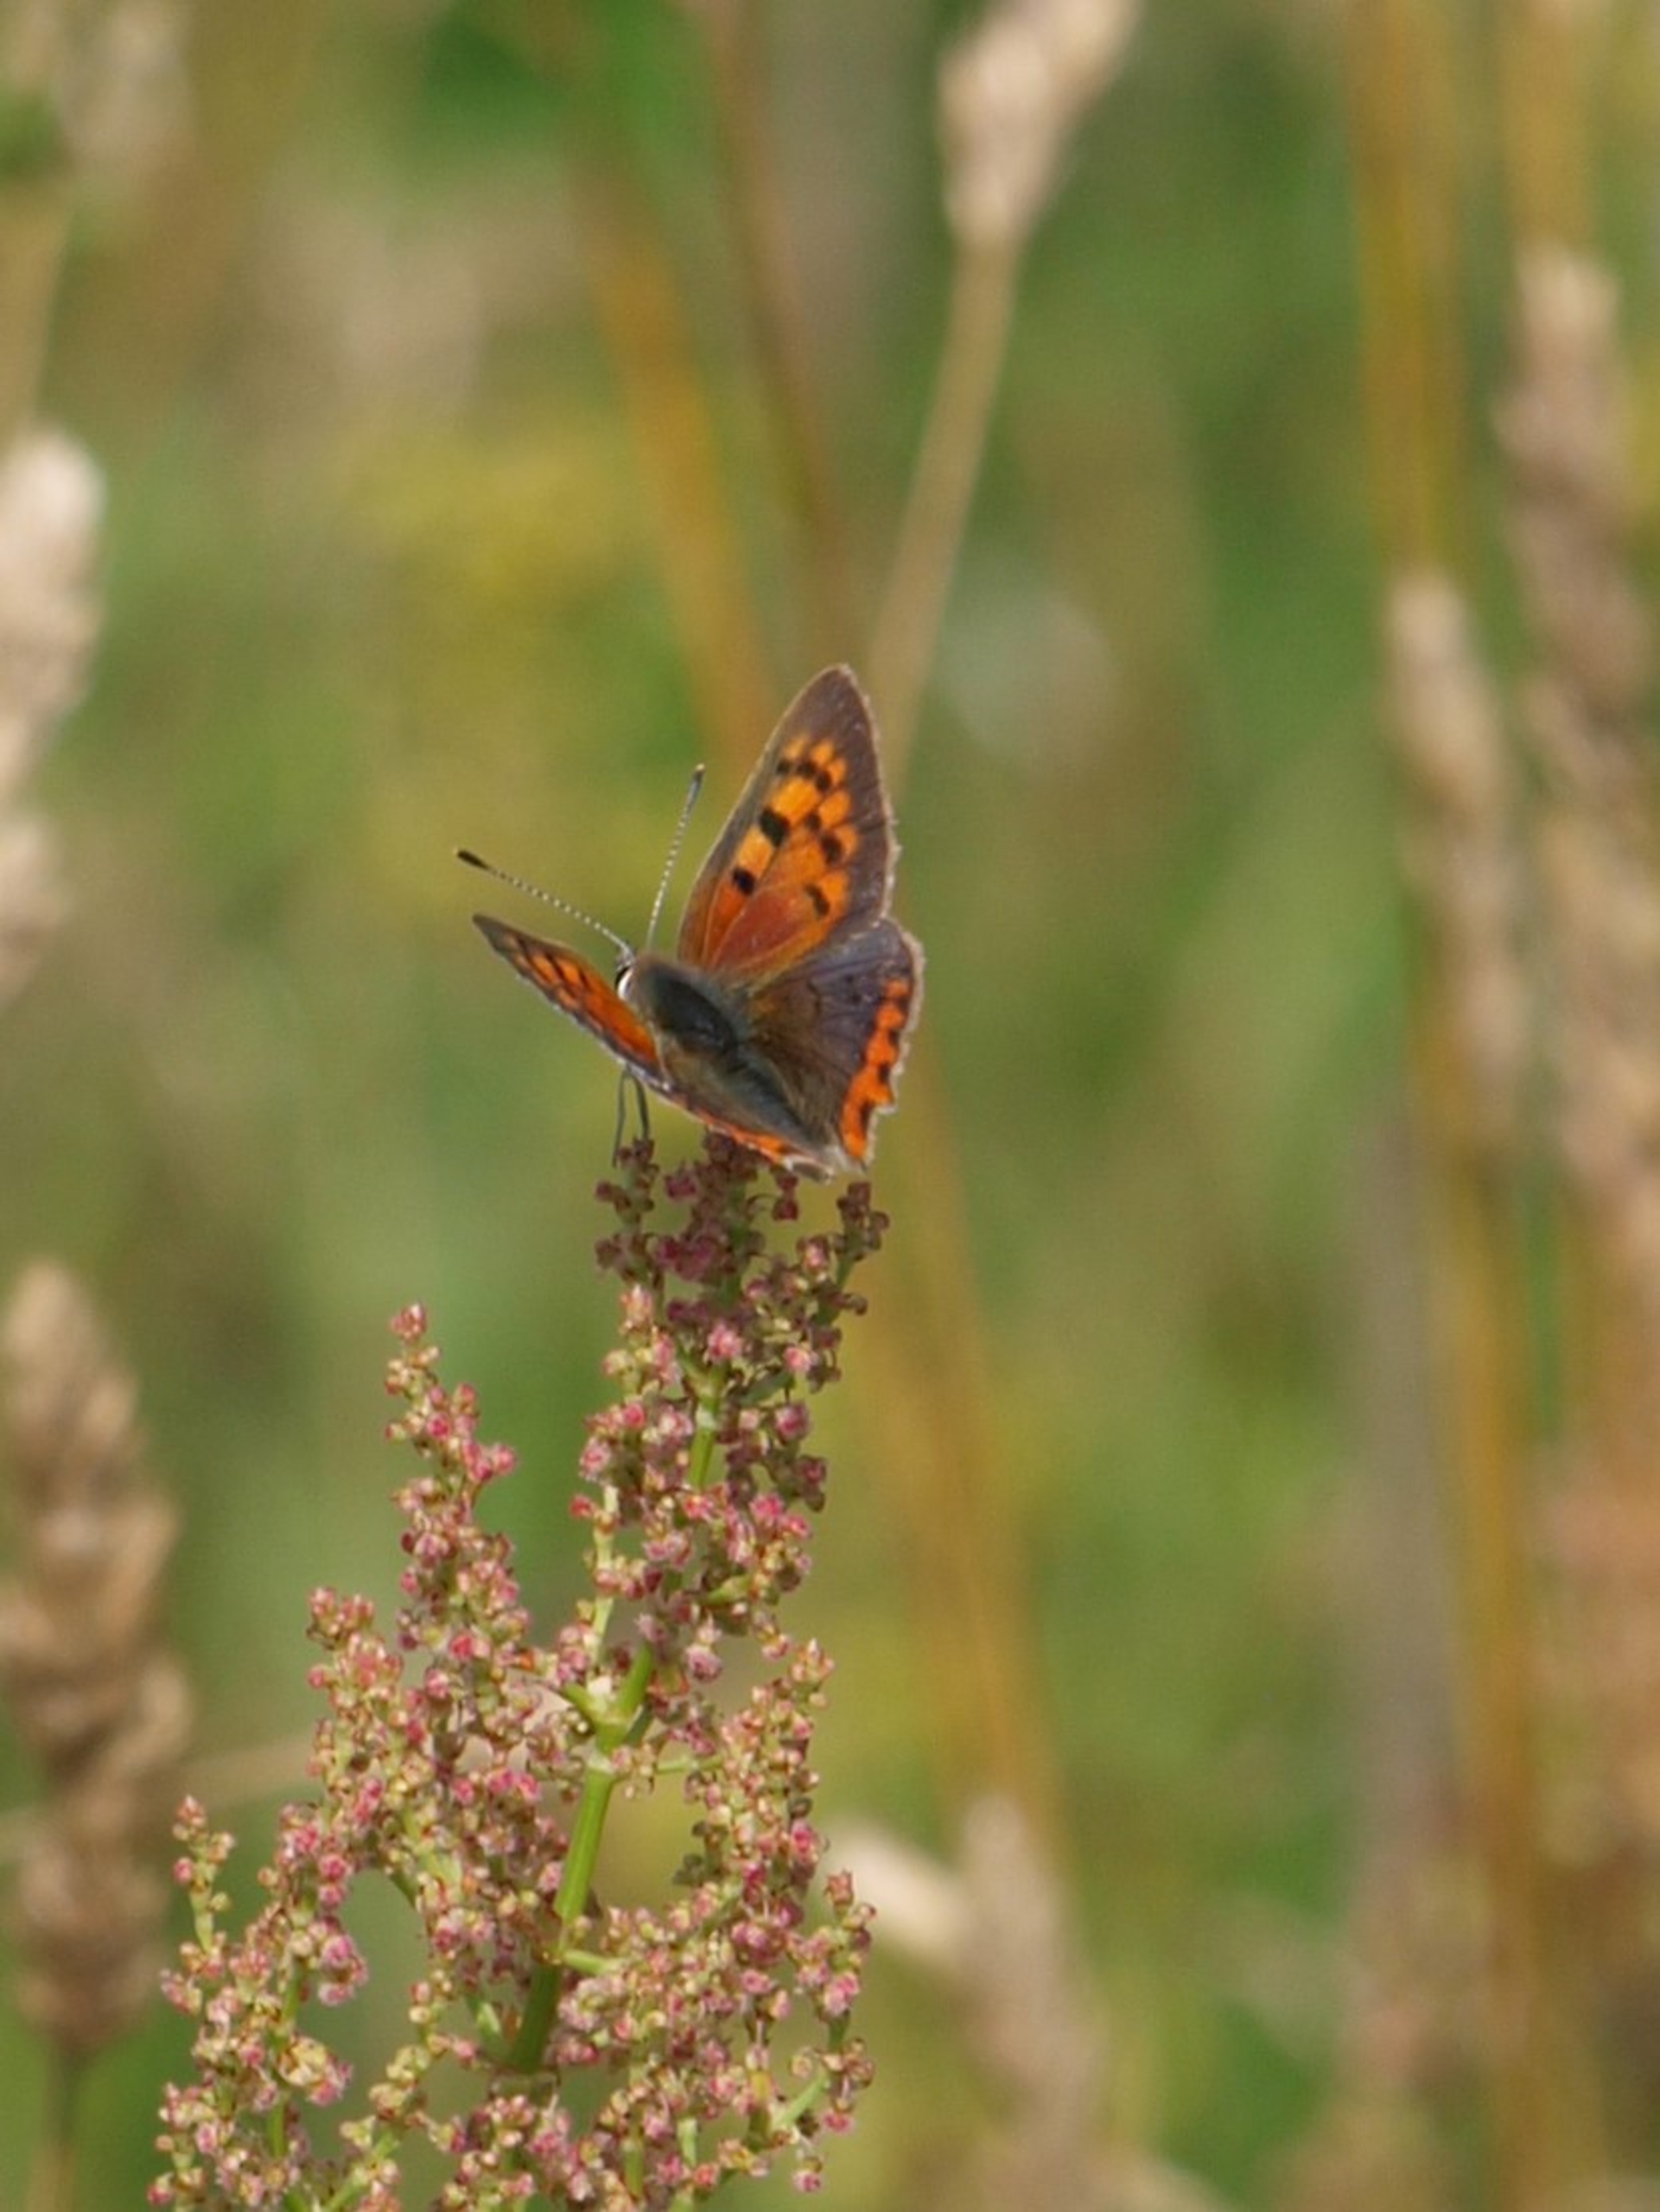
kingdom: Animalia
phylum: Arthropoda
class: Insecta
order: Lepidoptera
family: Lycaenidae
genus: Lycaena
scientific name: Lycaena phlaeas
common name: Lille ildfugl
